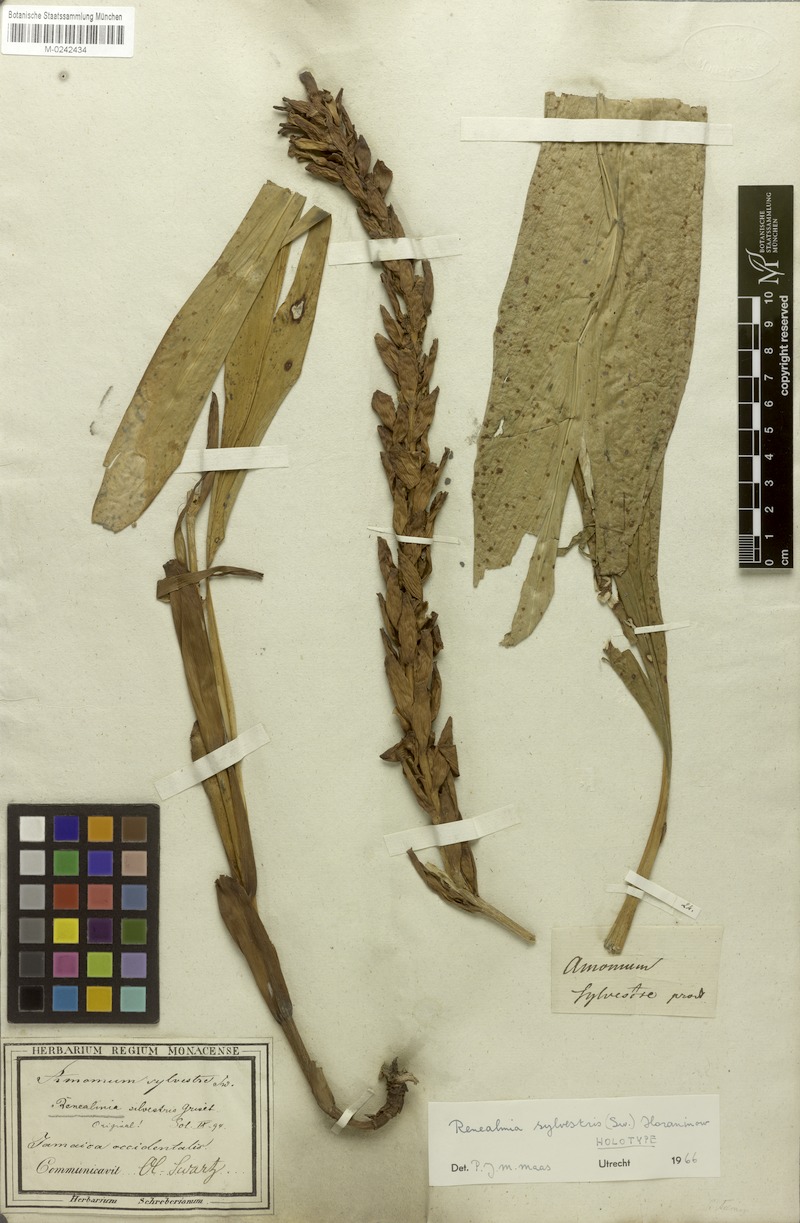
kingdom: Plantae
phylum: Tracheophyta
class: Liliopsida
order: Zingiberales
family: Zingiberaceae
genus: Renealmia
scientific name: Renealmia striata
